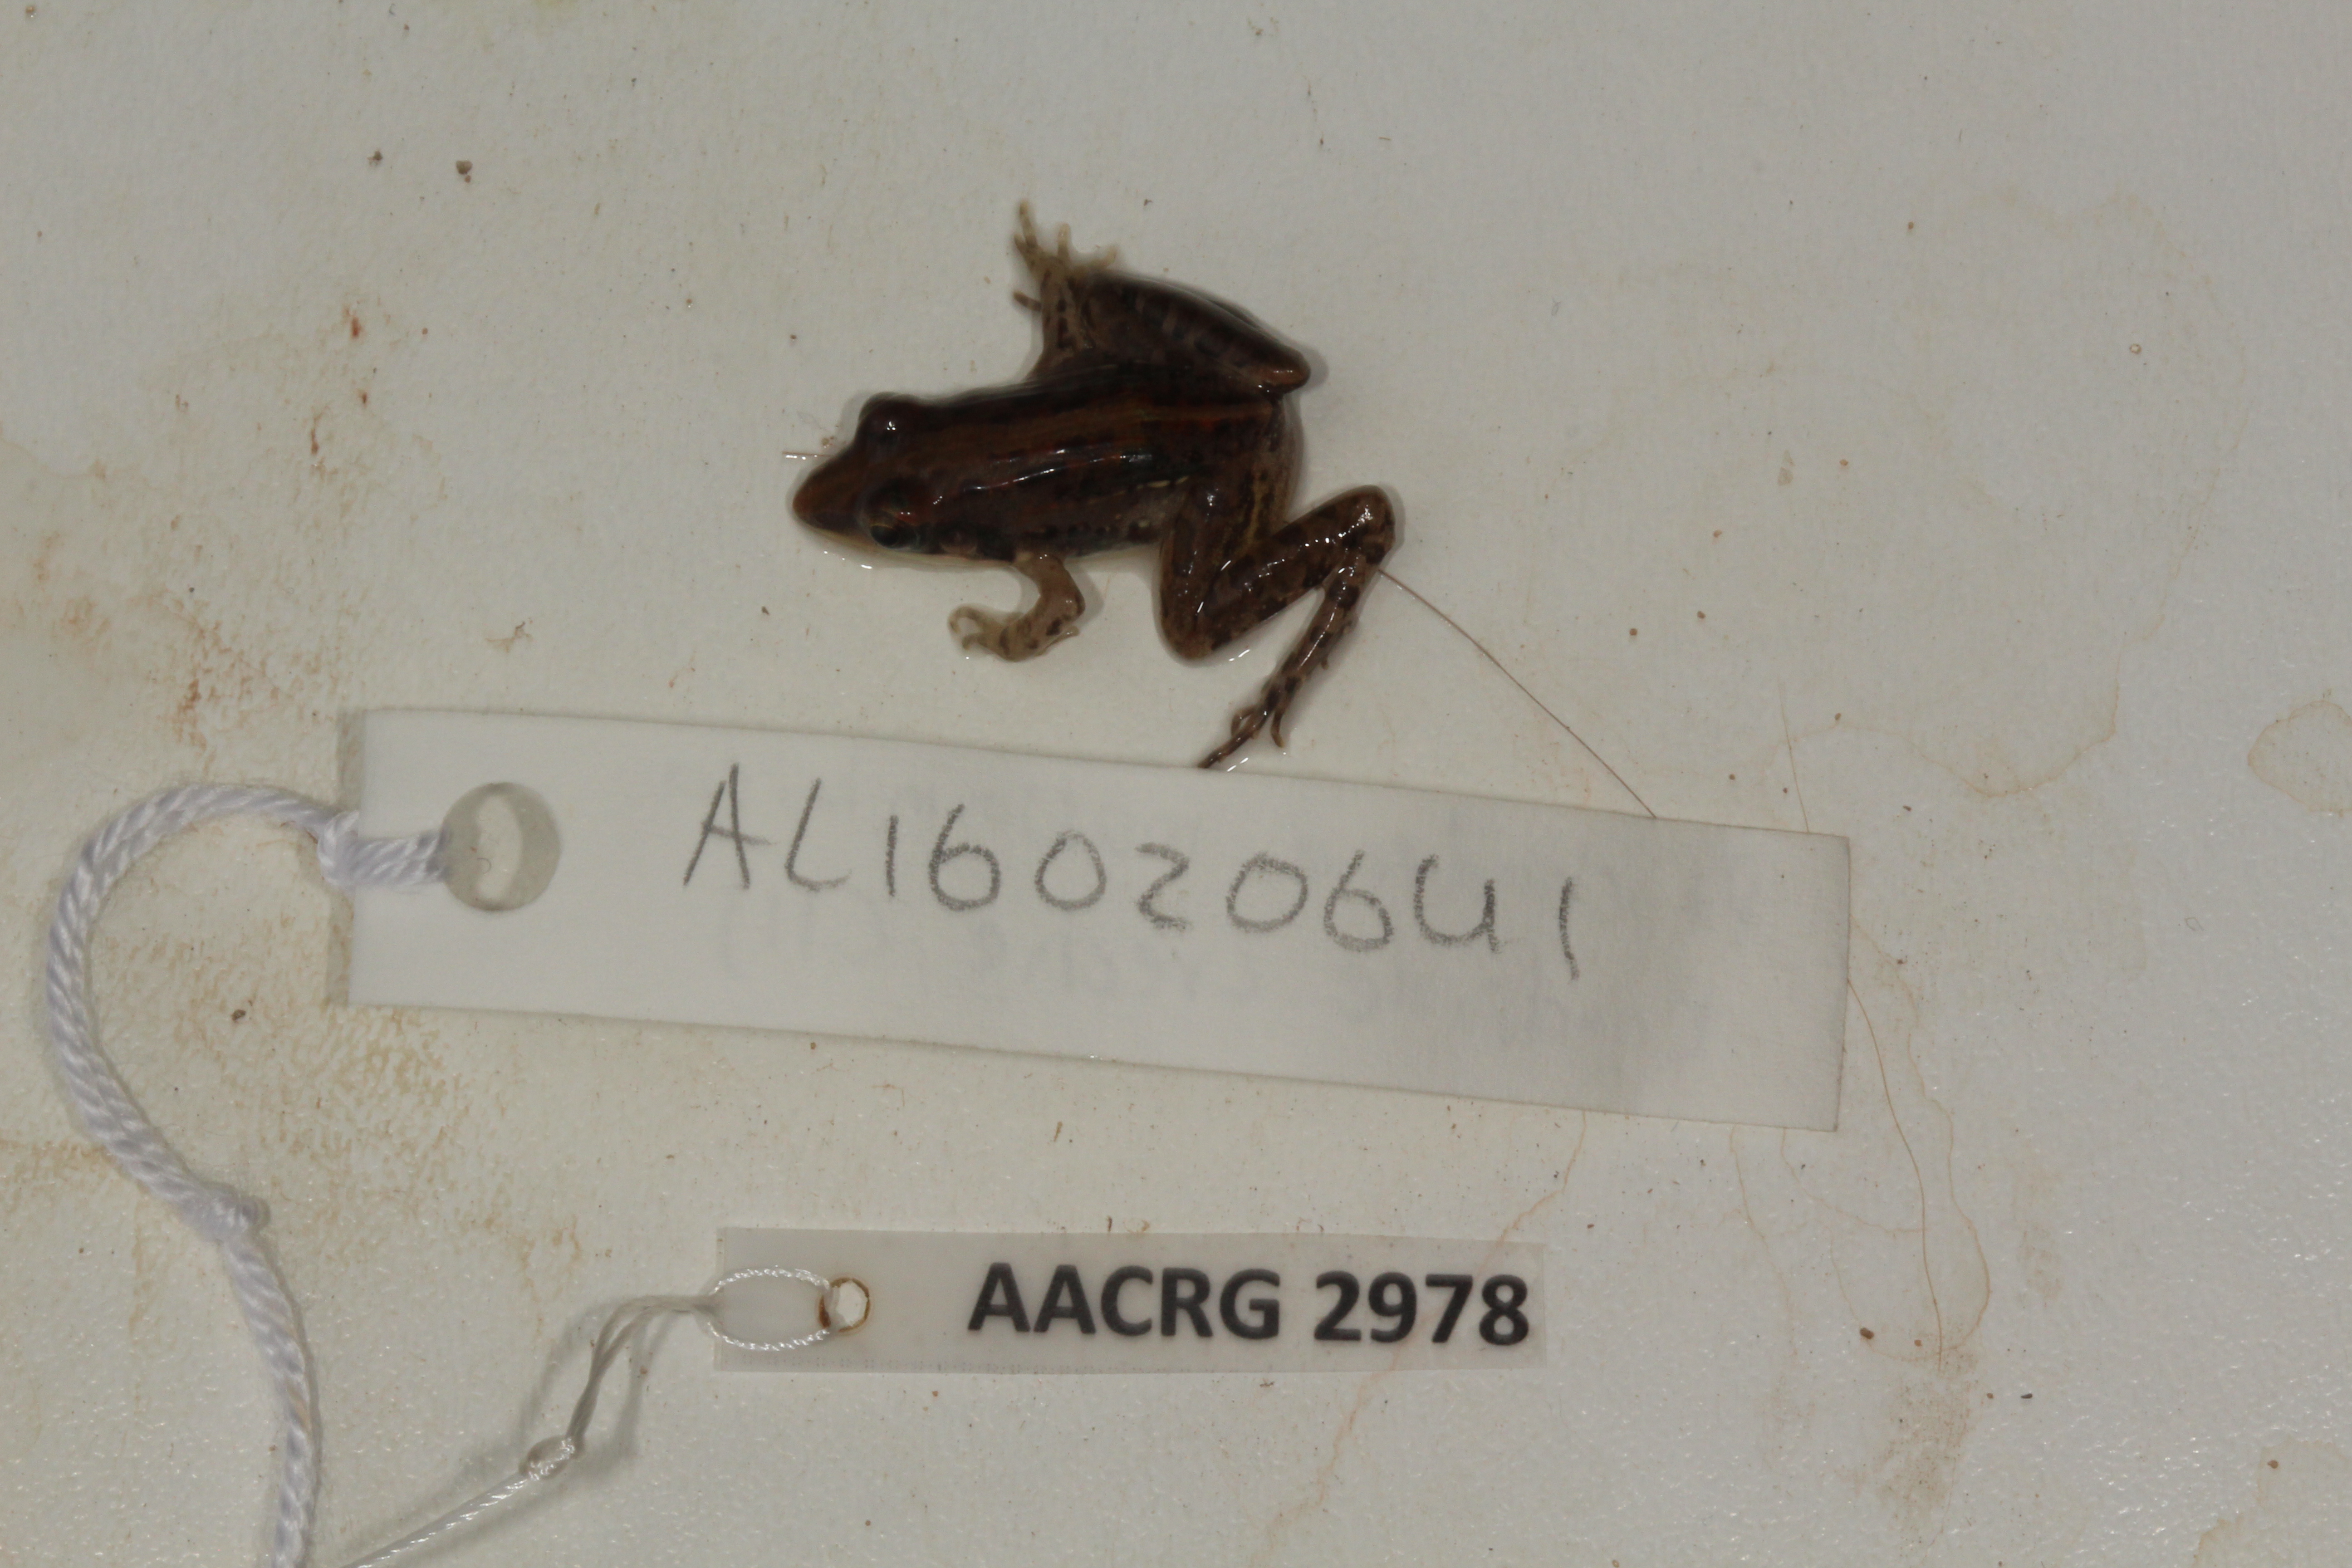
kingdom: Animalia
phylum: Chordata
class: Amphibia
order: Anura
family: Ptychadenidae
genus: Ptychadena
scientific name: Ptychadena mossambica
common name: Mozambique ridged frog
